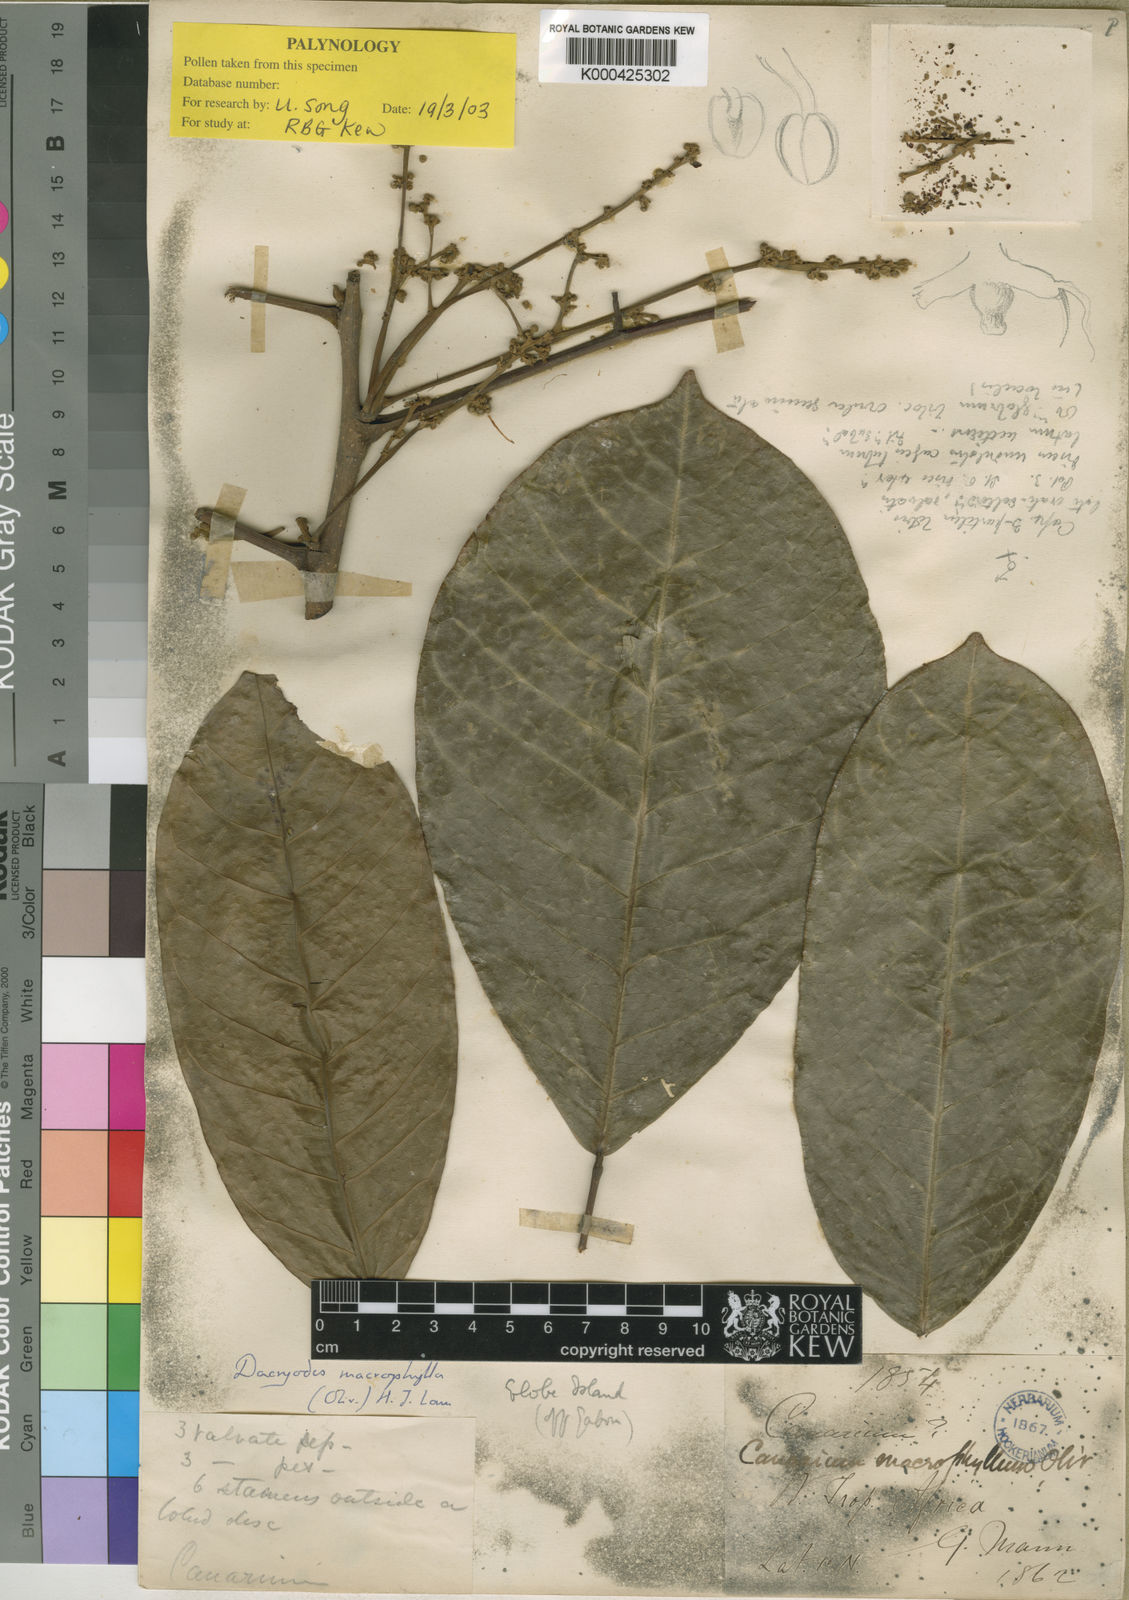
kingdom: Plantae
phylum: Tracheophyta
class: Magnoliopsida
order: Sapindales
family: Burseraceae
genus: Pachylobus
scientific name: Pachylobus macrophyllus
